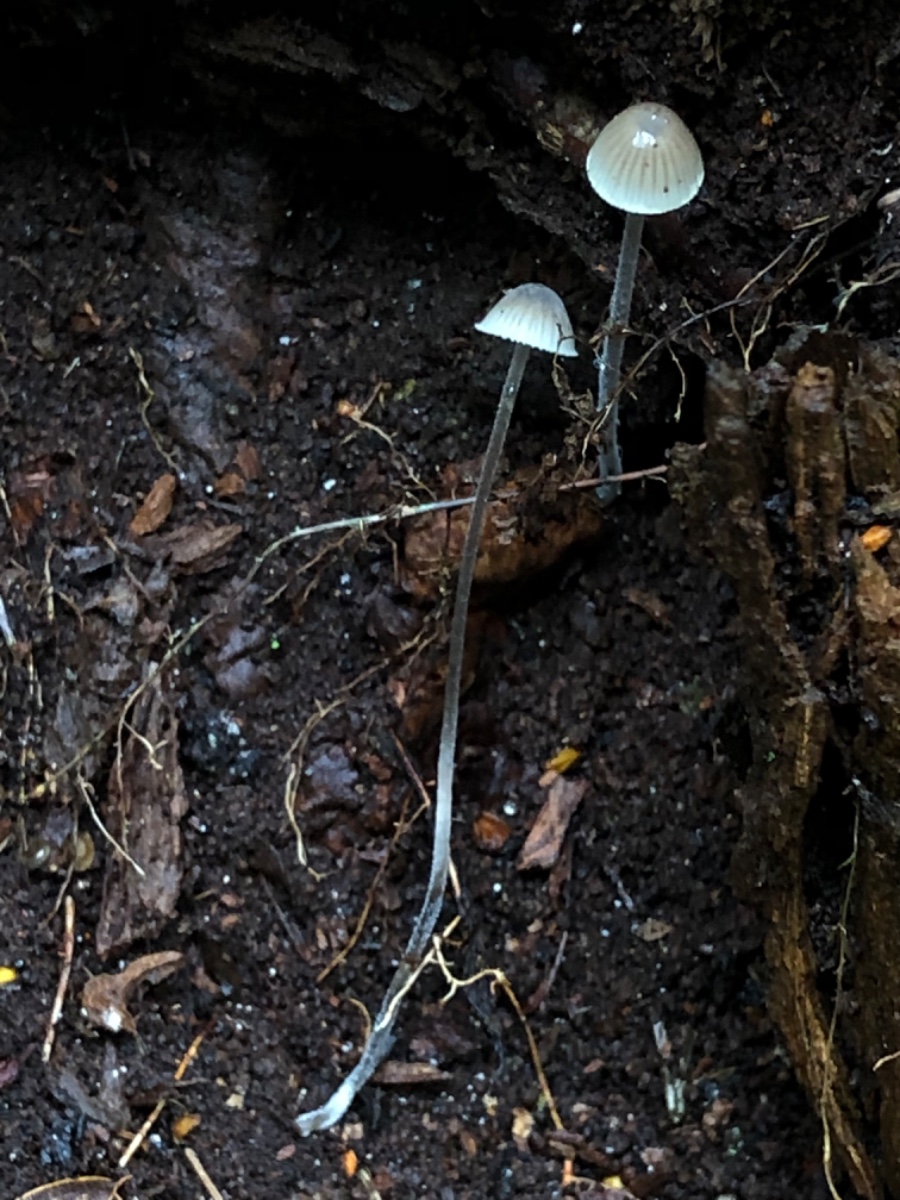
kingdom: Fungi
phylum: Basidiomycota
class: Agaricomycetes
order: Agaricales
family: Mycenaceae
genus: Mycena
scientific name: Mycena amicta
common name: iris-huesvamp
